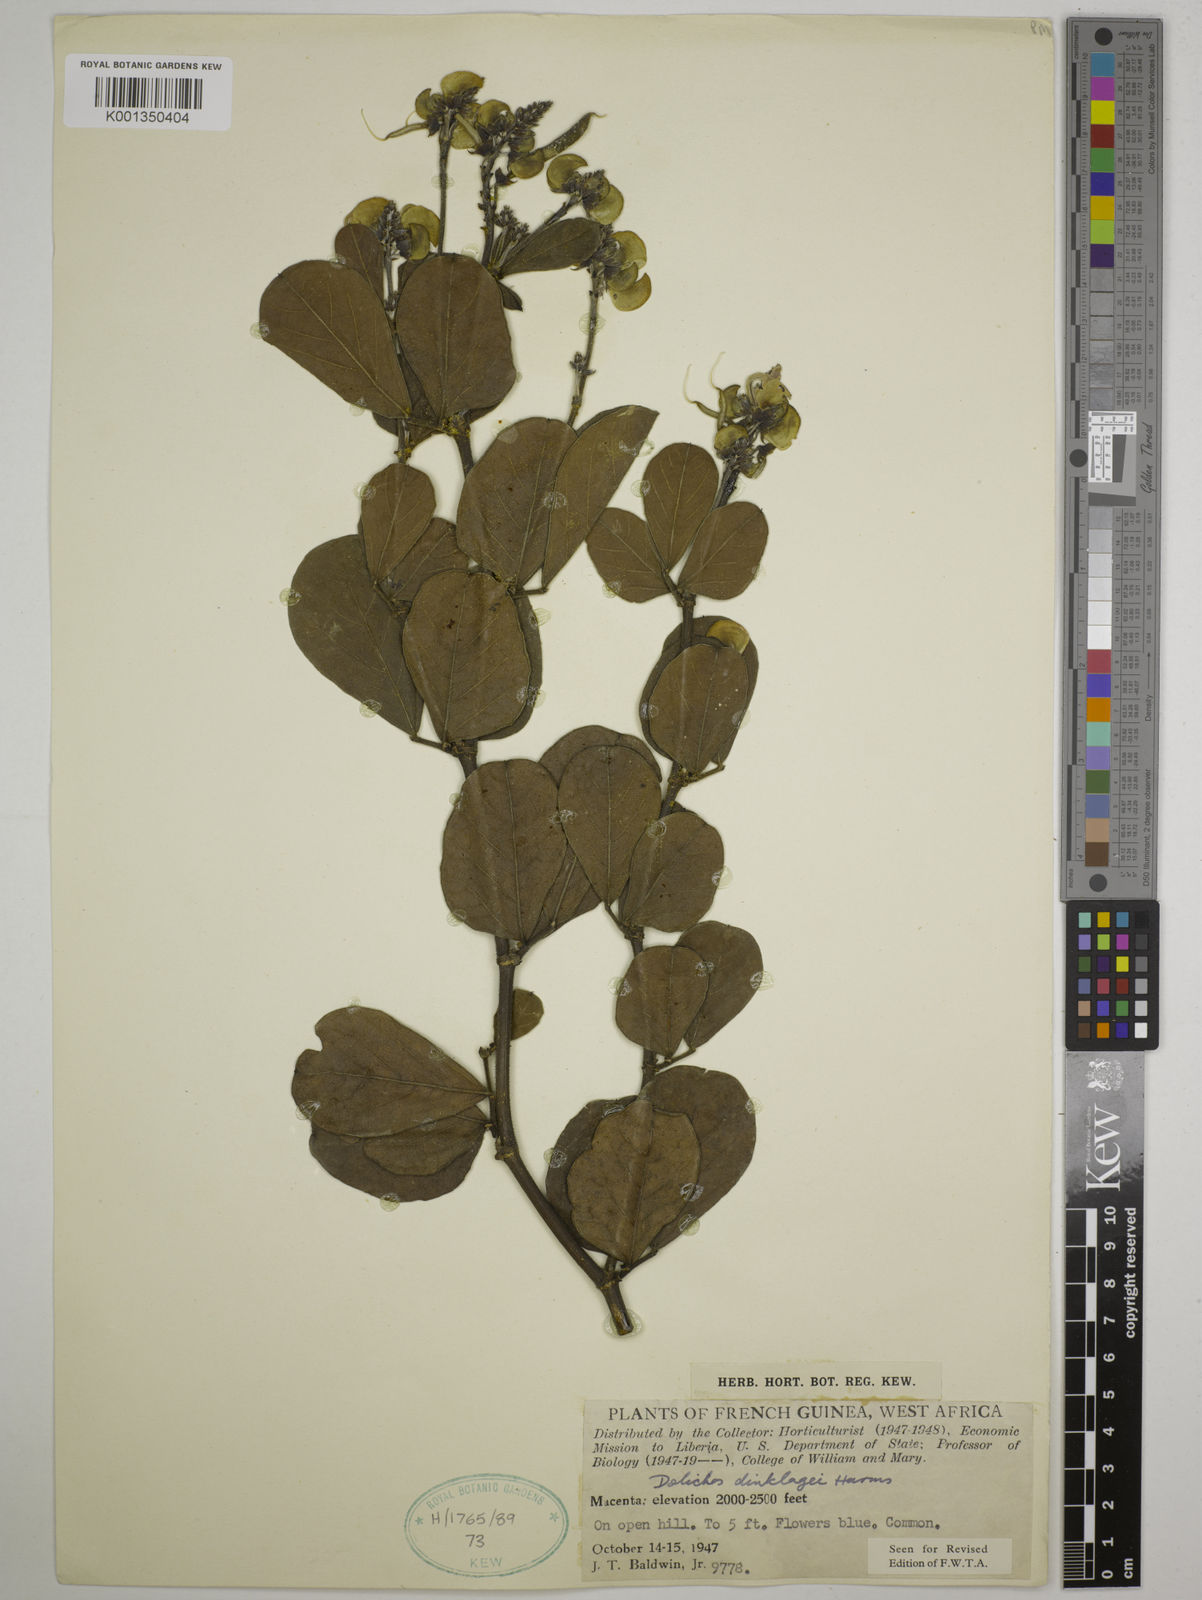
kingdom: Plantae
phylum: Tracheophyta
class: Magnoliopsida
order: Fabales
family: Fabaceae
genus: Dolichos
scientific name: Dolichos dinklagei
